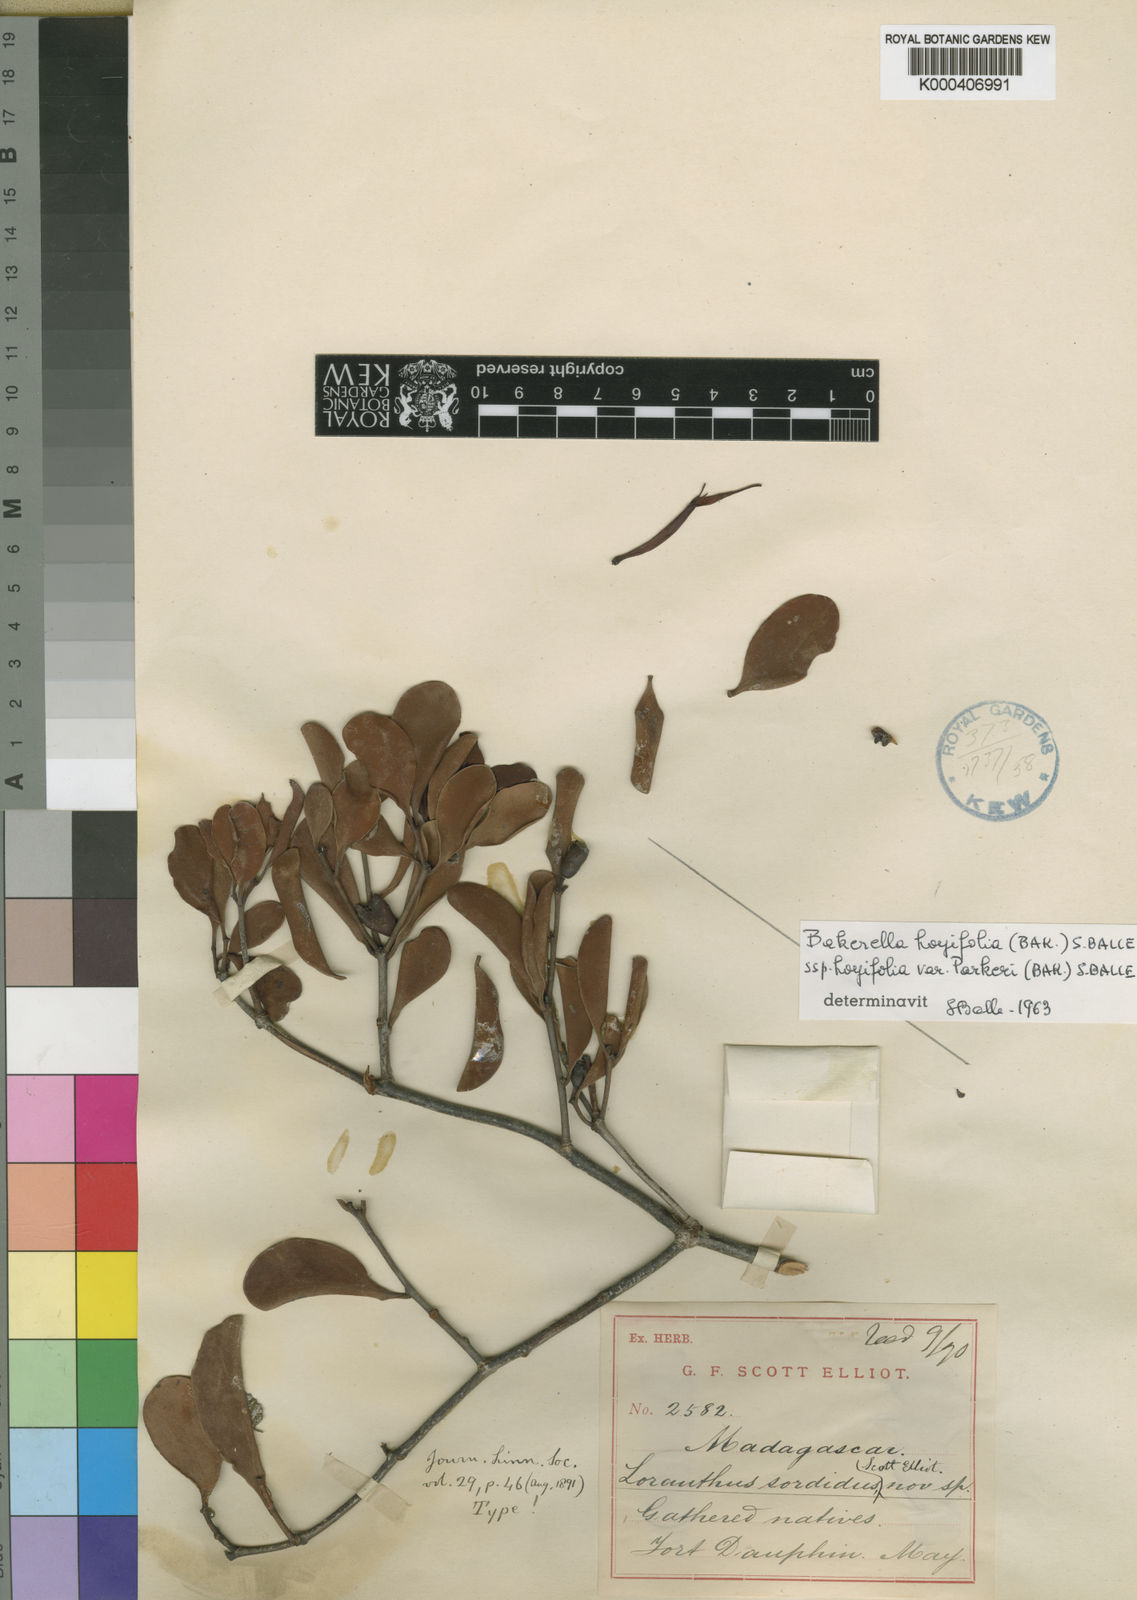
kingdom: Plantae
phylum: Tracheophyta
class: Magnoliopsida
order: Santalales
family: Loranthaceae
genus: Bakerella
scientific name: Bakerella hoyifolia
